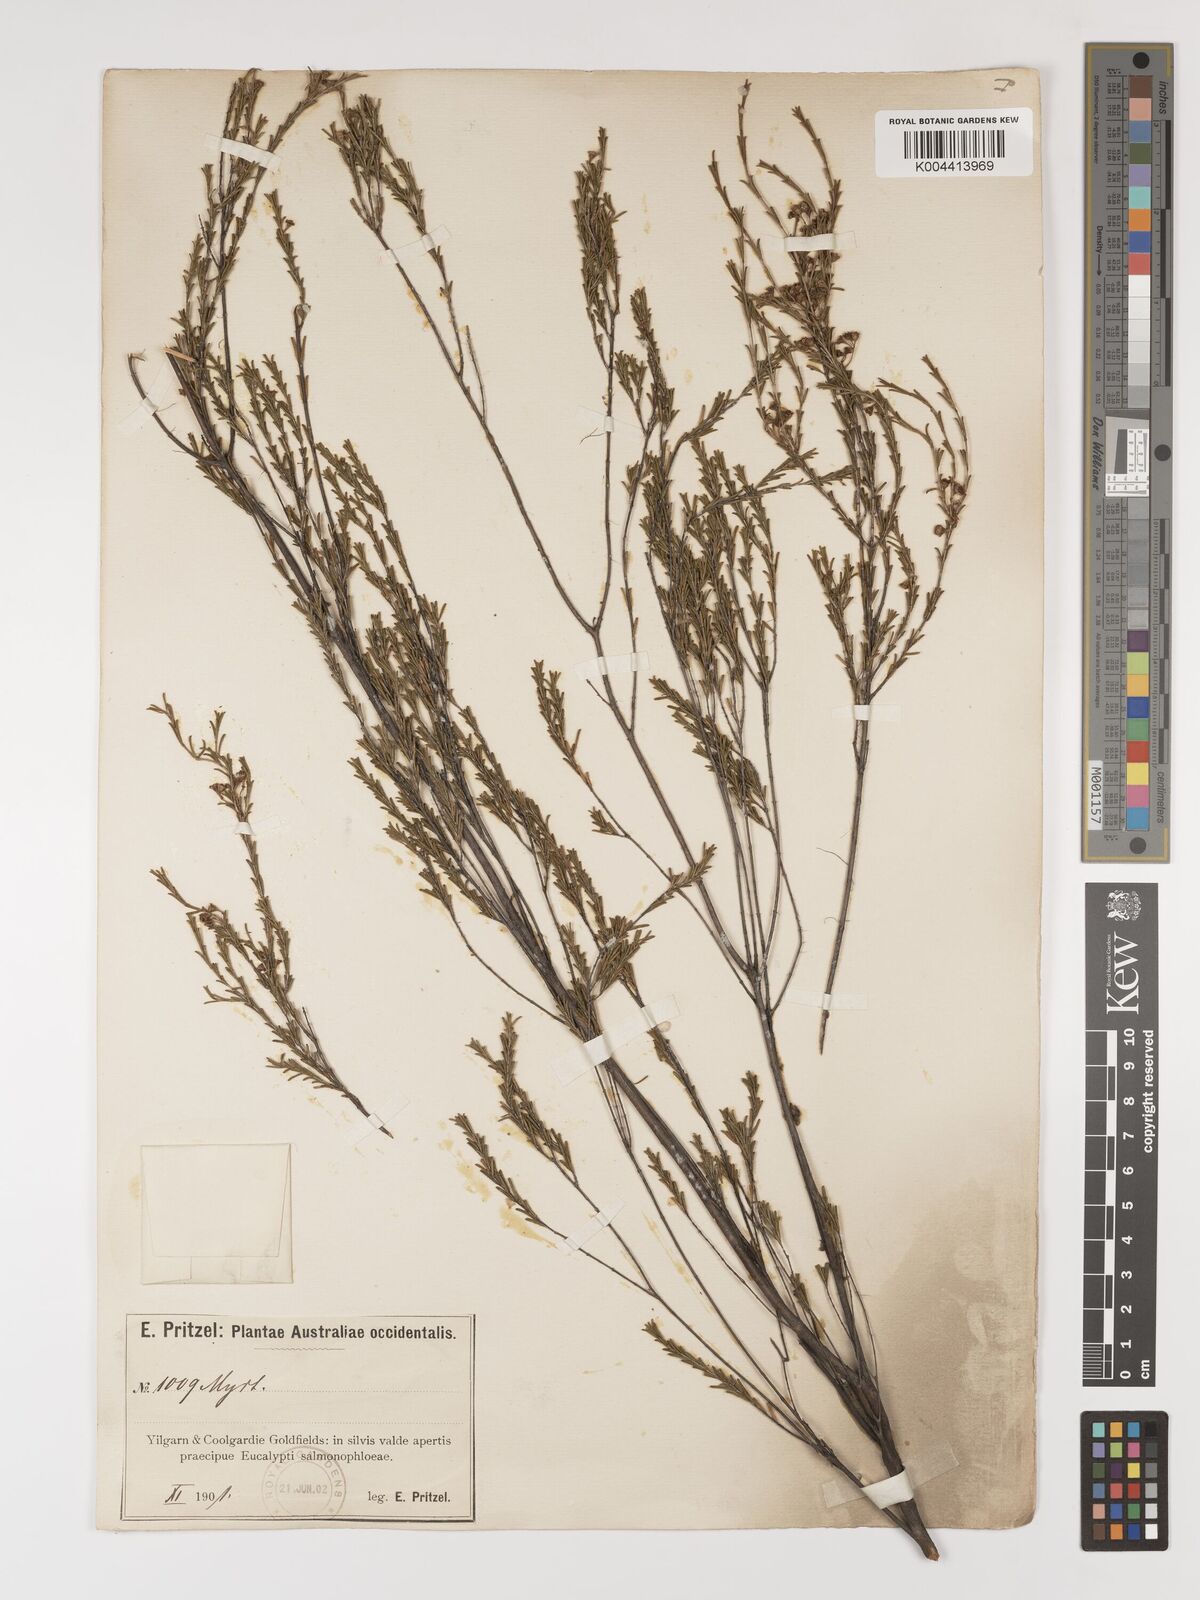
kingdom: Plantae
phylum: Tracheophyta
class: Magnoliopsida
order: Myrtales
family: Myrtaceae
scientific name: Myrtaceae
